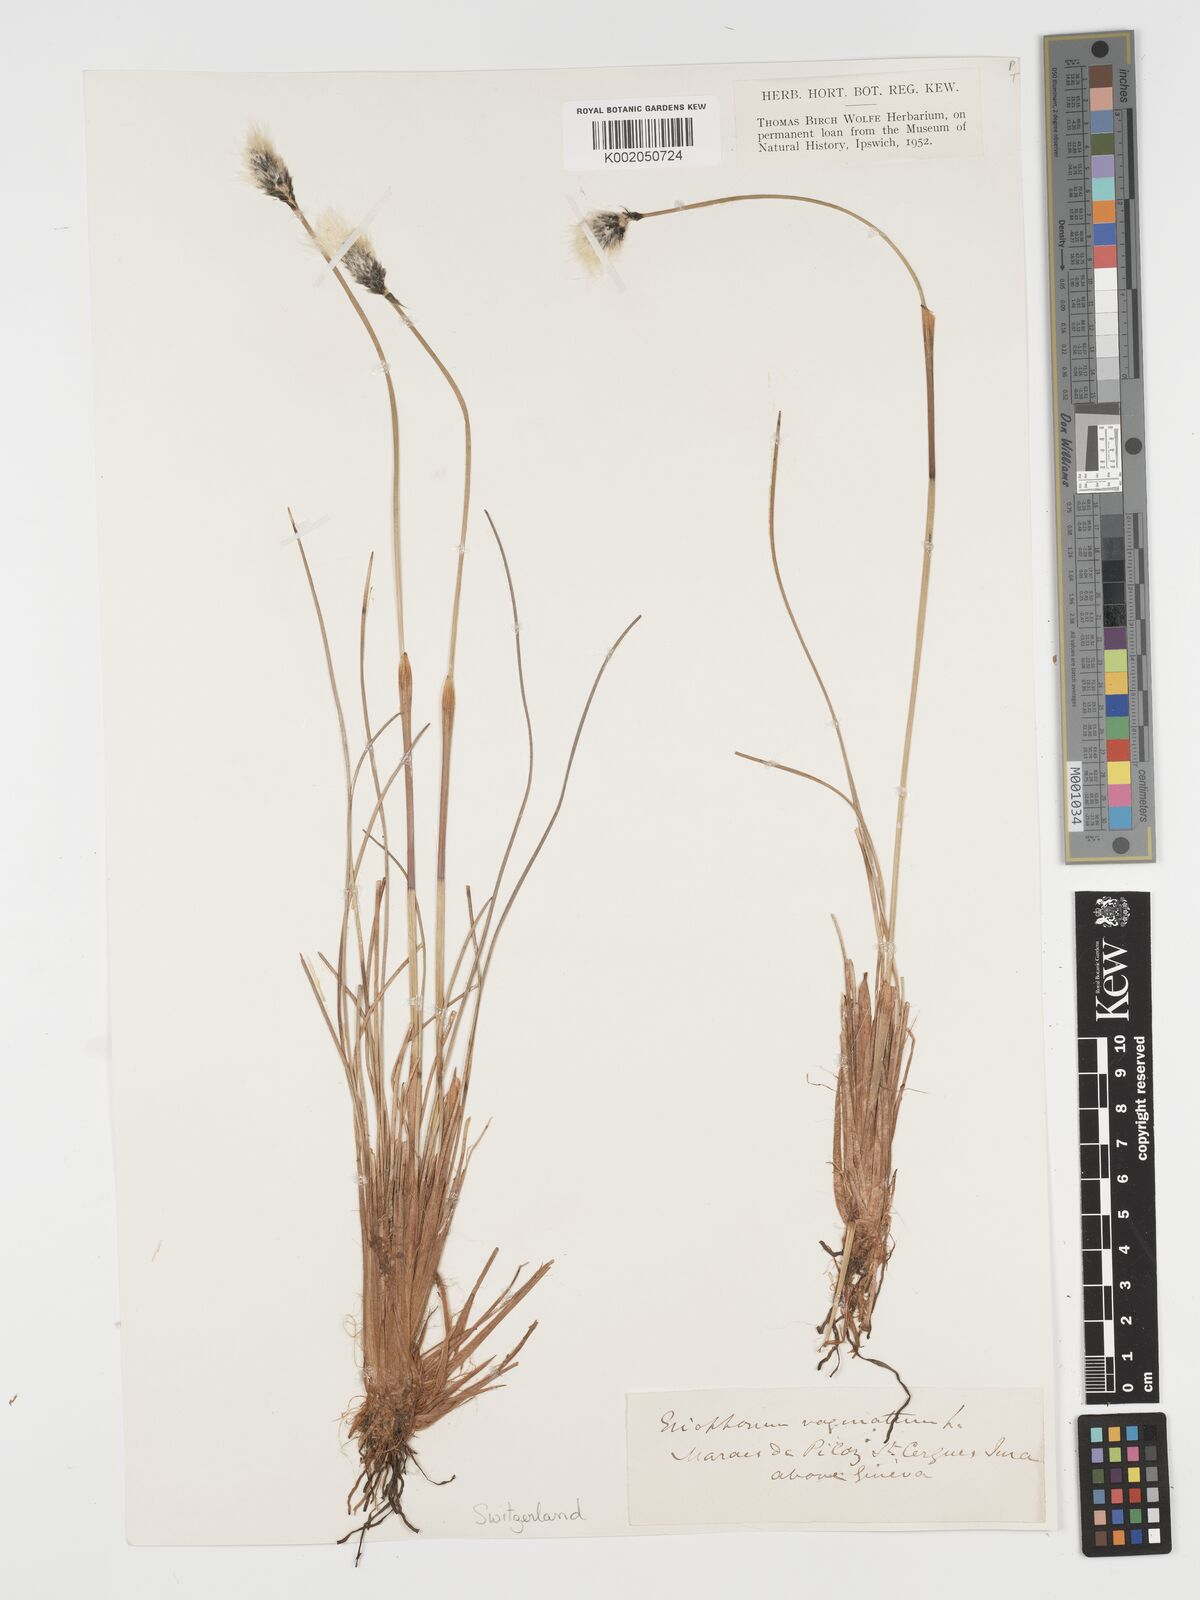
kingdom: Plantae
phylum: Tracheophyta
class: Liliopsida
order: Poales
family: Cyperaceae
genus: Eriophorum
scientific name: Eriophorum vaginatum
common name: Hare's-tail cottongrass
